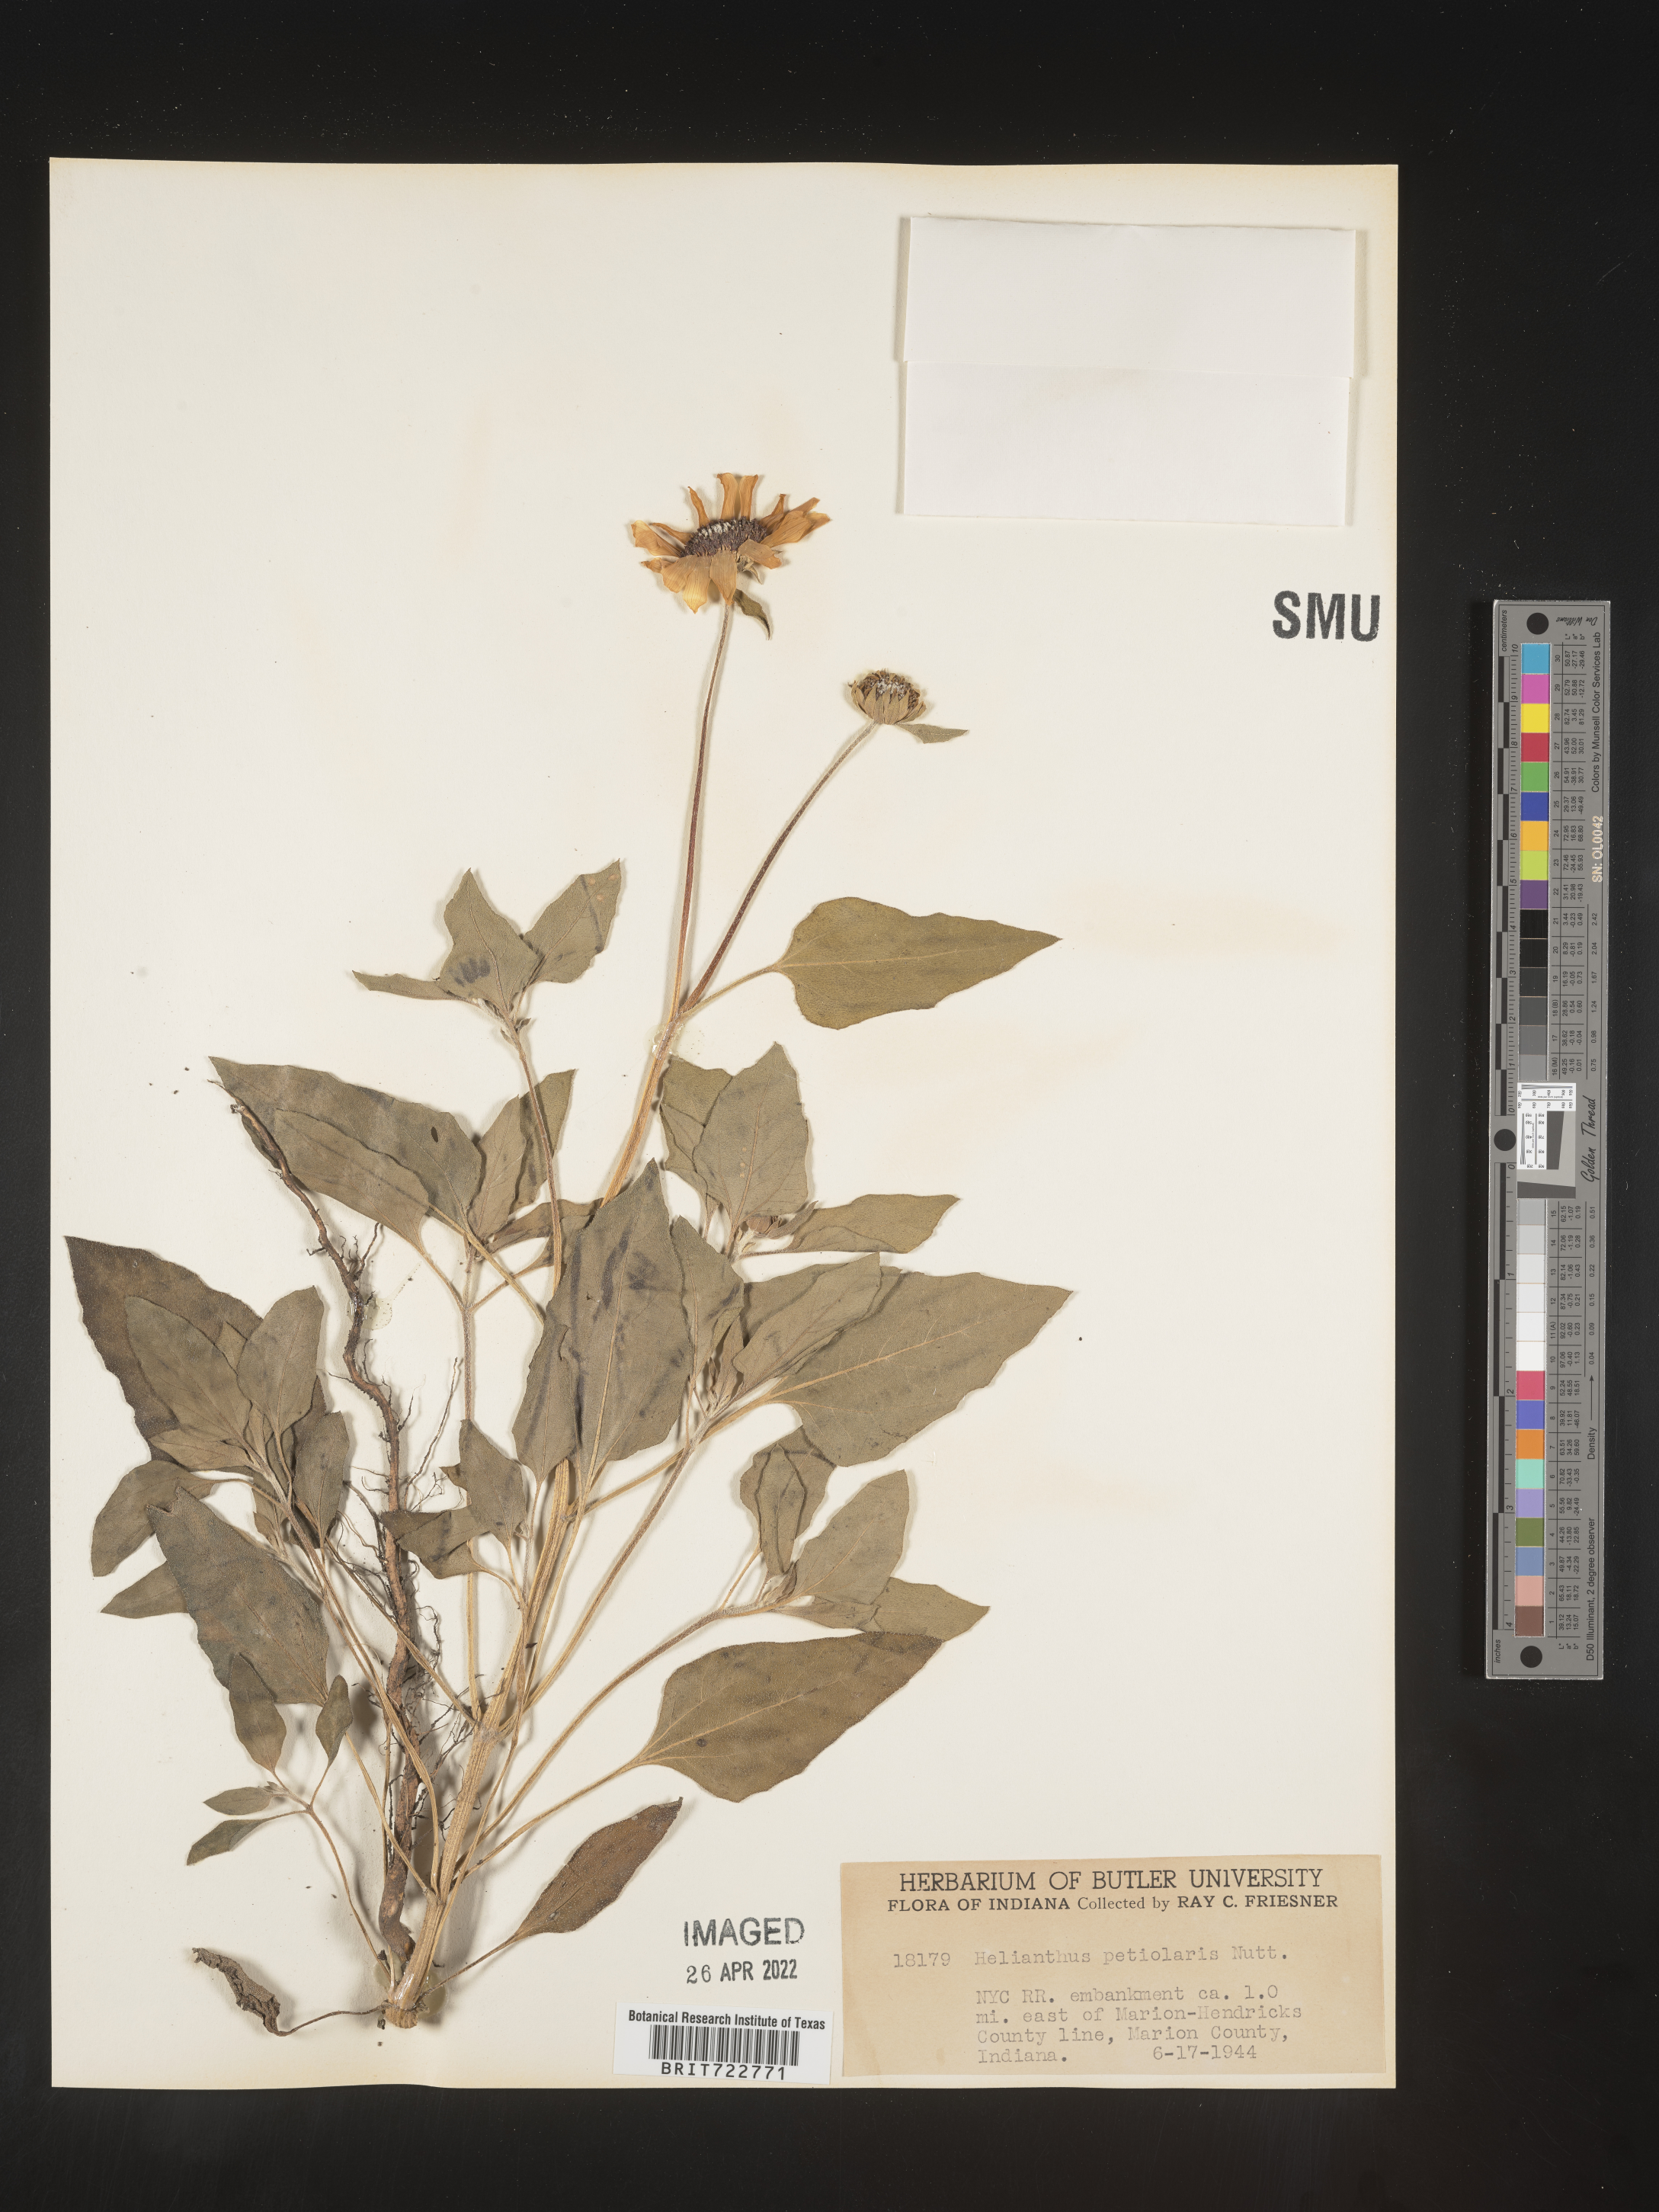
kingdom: Plantae
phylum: Tracheophyta
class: Magnoliopsida
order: Asterales
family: Asteraceae
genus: Helianthus
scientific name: Helianthus petiolaris
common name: Lesser sunflower
